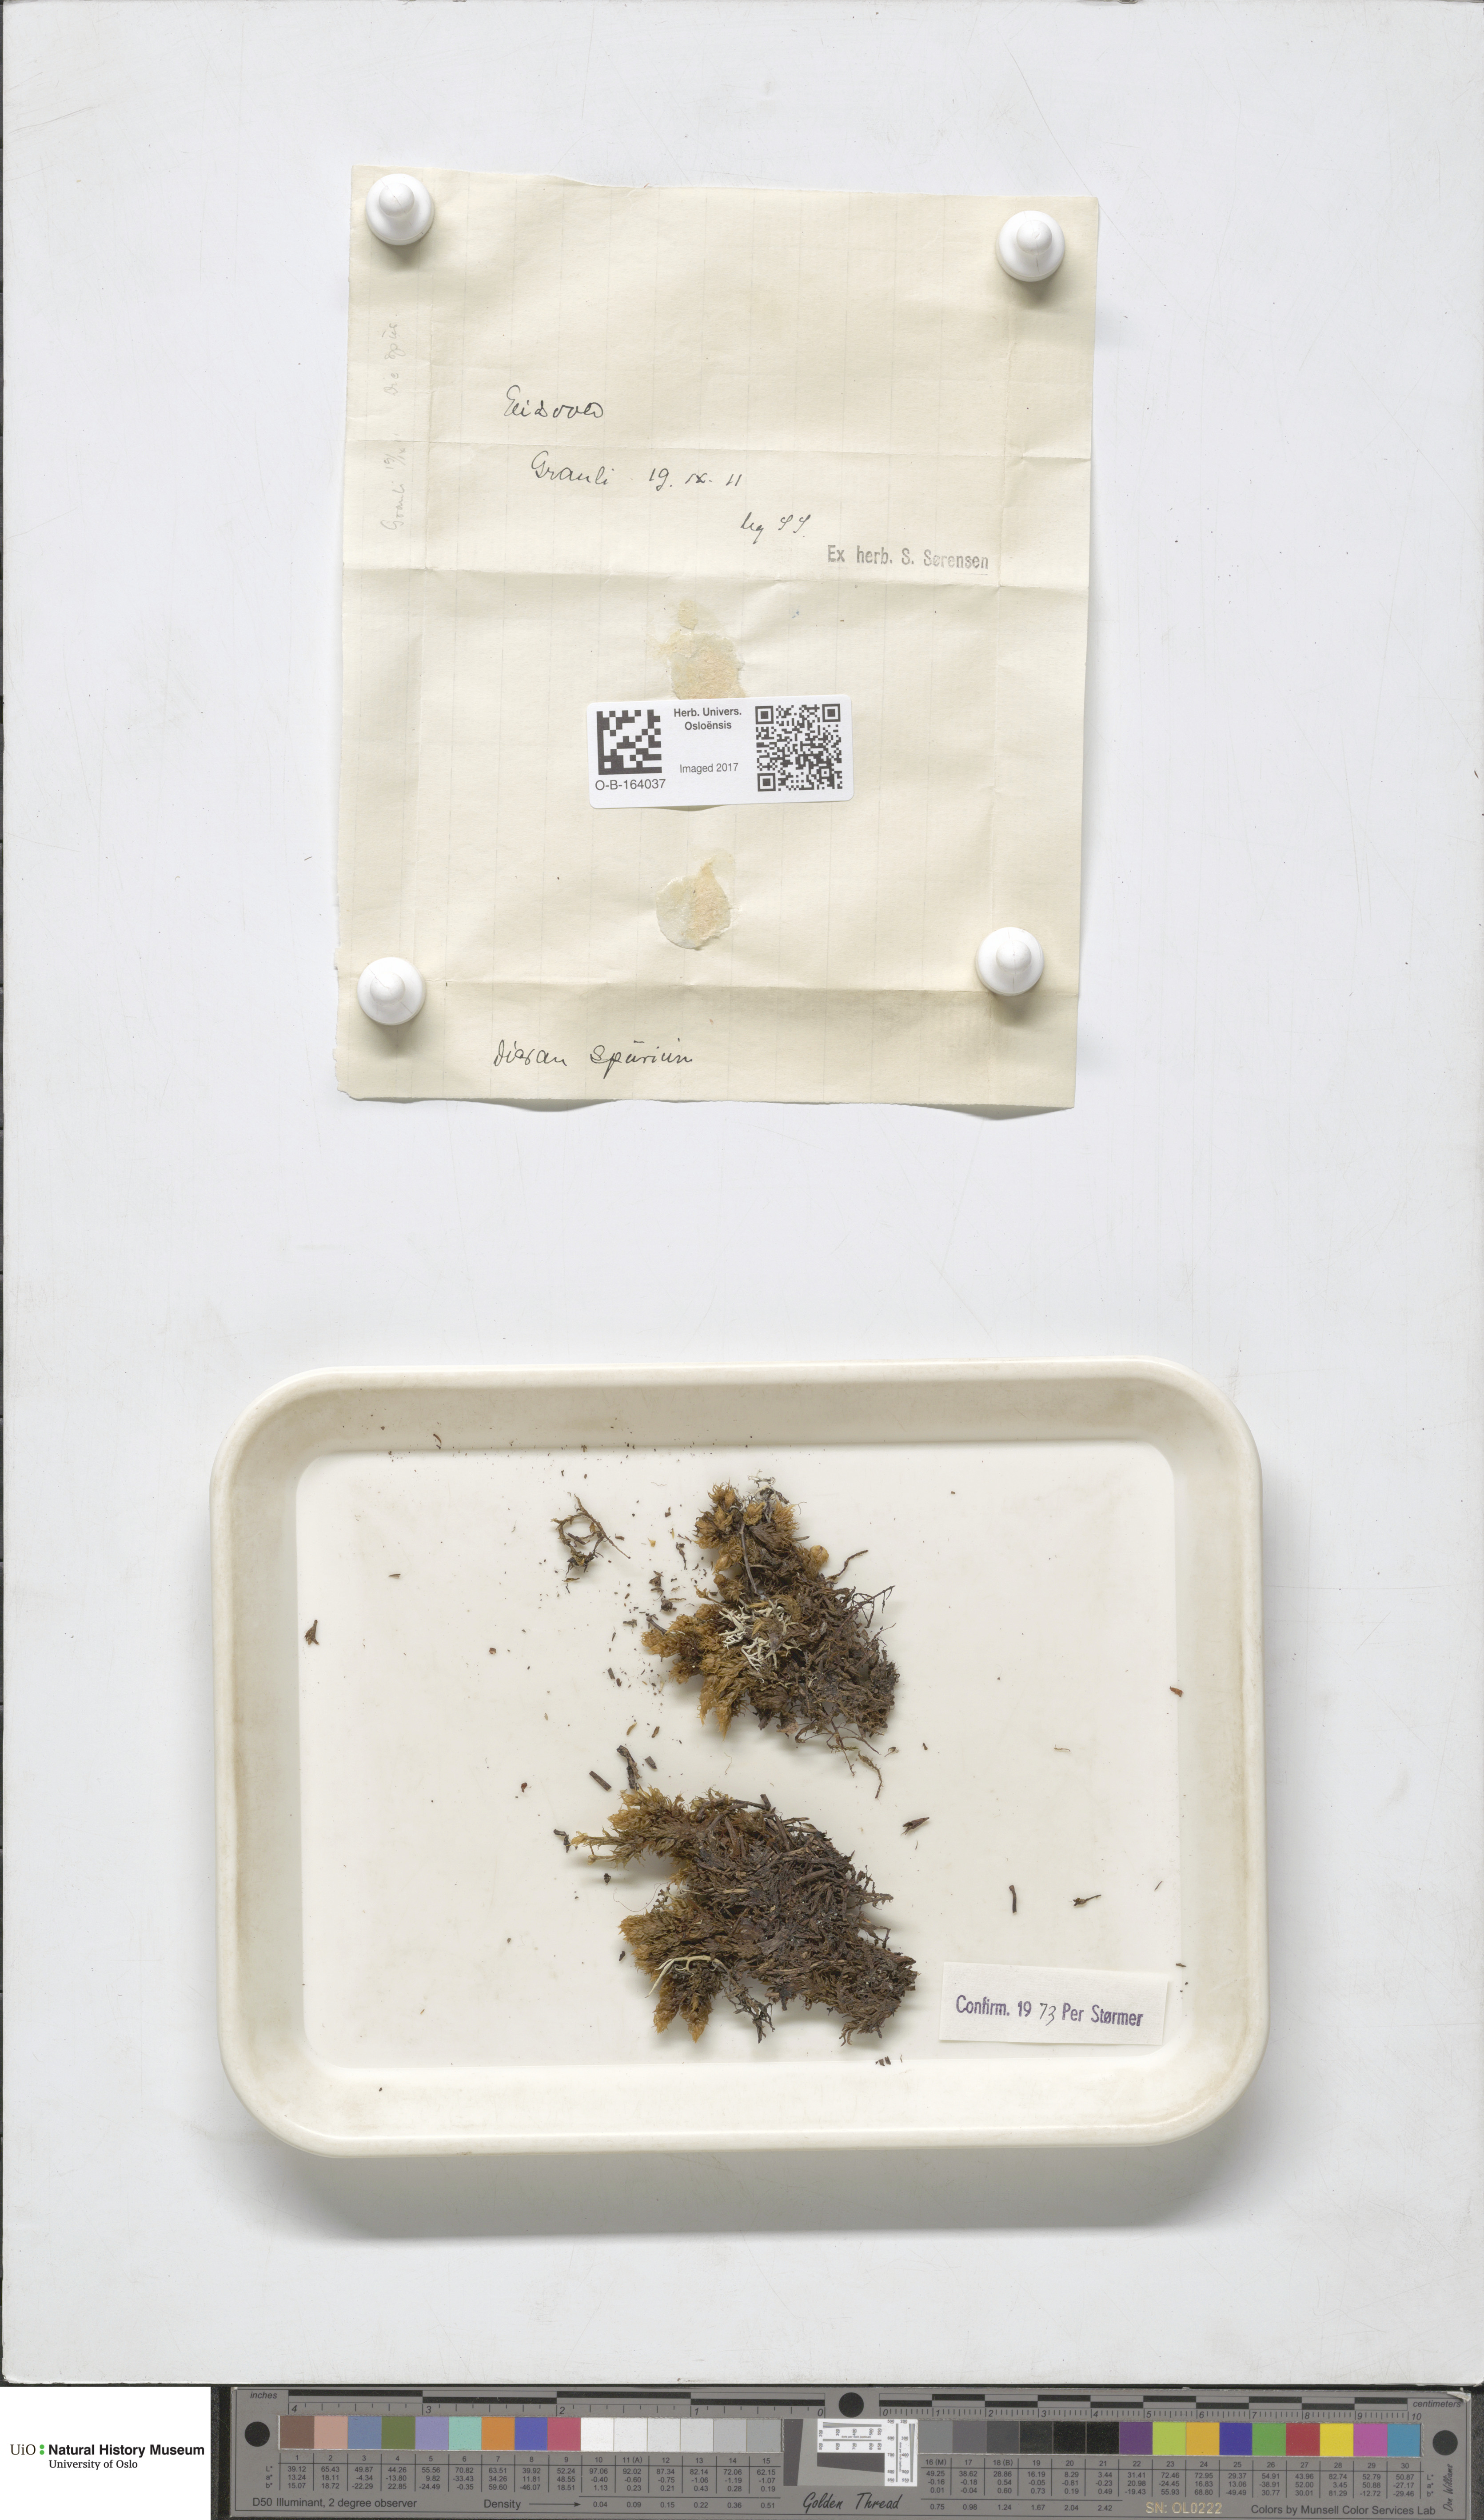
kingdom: Plantae
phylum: Bryophyta
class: Bryopsida
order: Dicranales
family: Dicranaceae
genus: Dicranum
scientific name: Dicranum spurium
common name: Spurred broom moss
